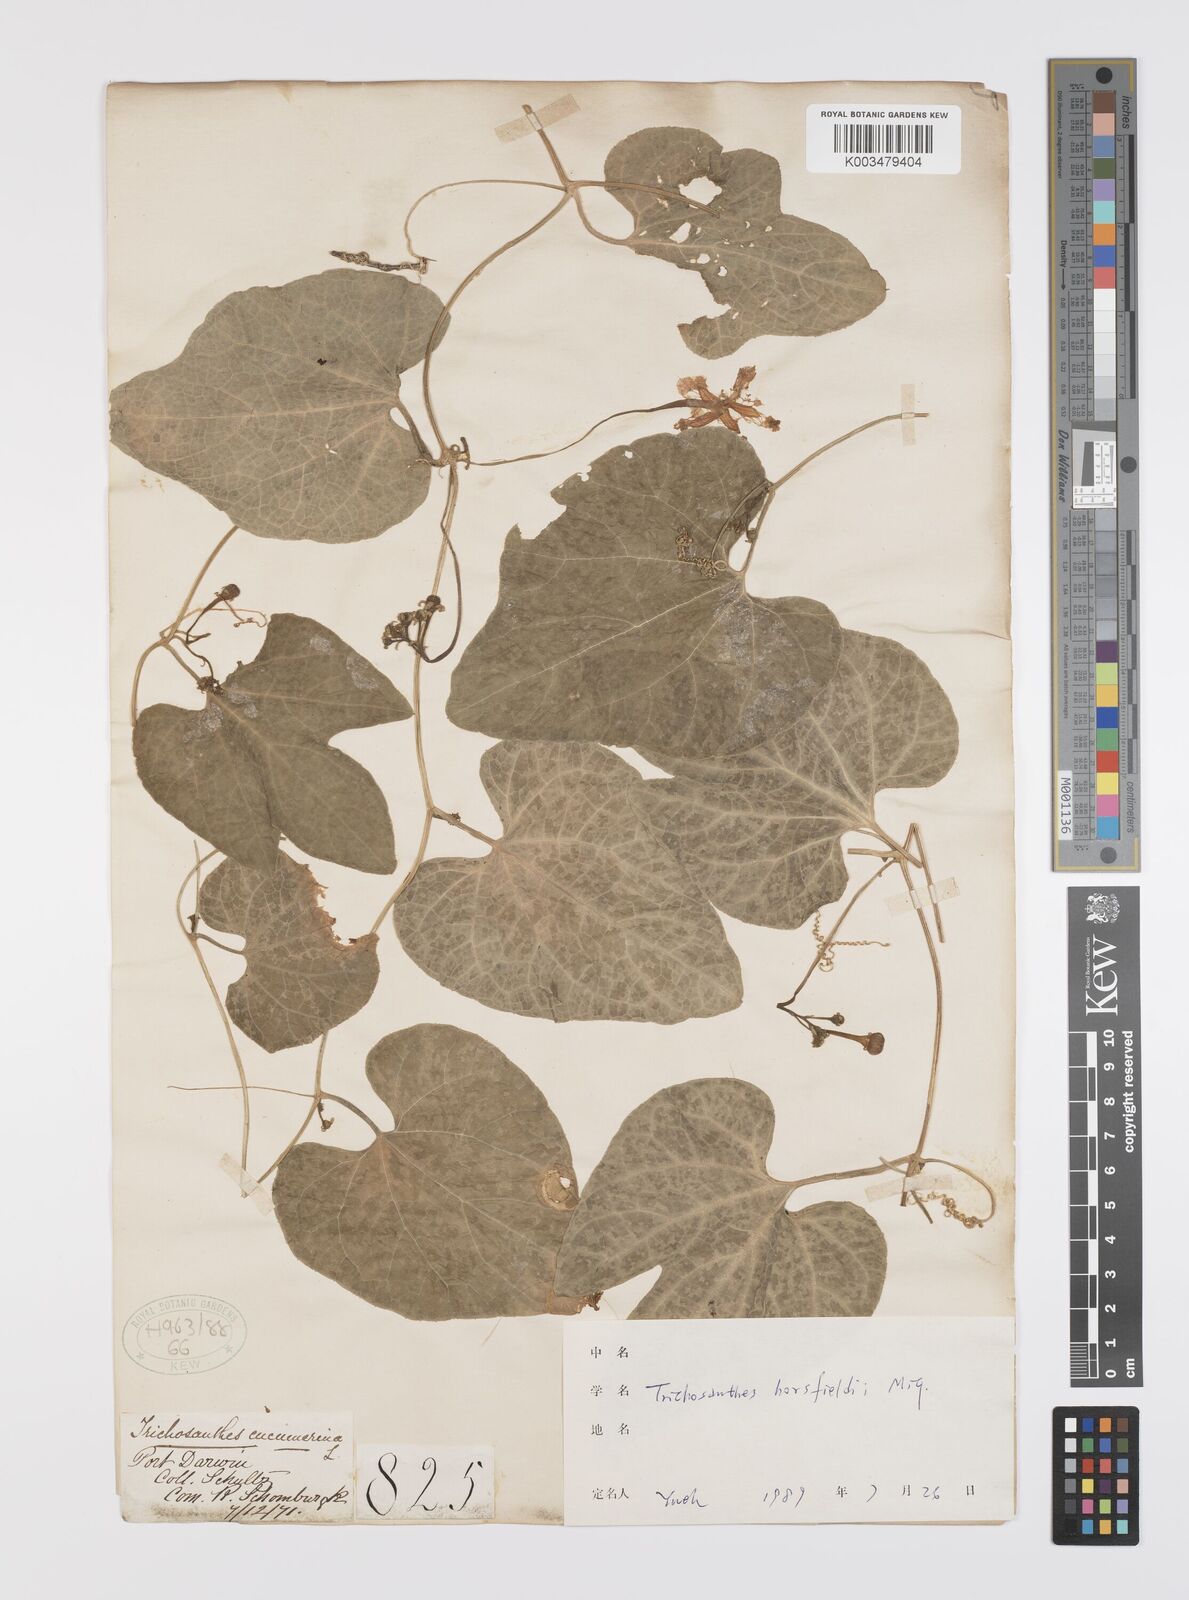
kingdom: Plantae
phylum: Tracheophyta
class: Magnoliopsida
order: Cucurbitales
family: Cucurbitaceae
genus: Trichosanthes
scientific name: Trichosanthes ovigera
